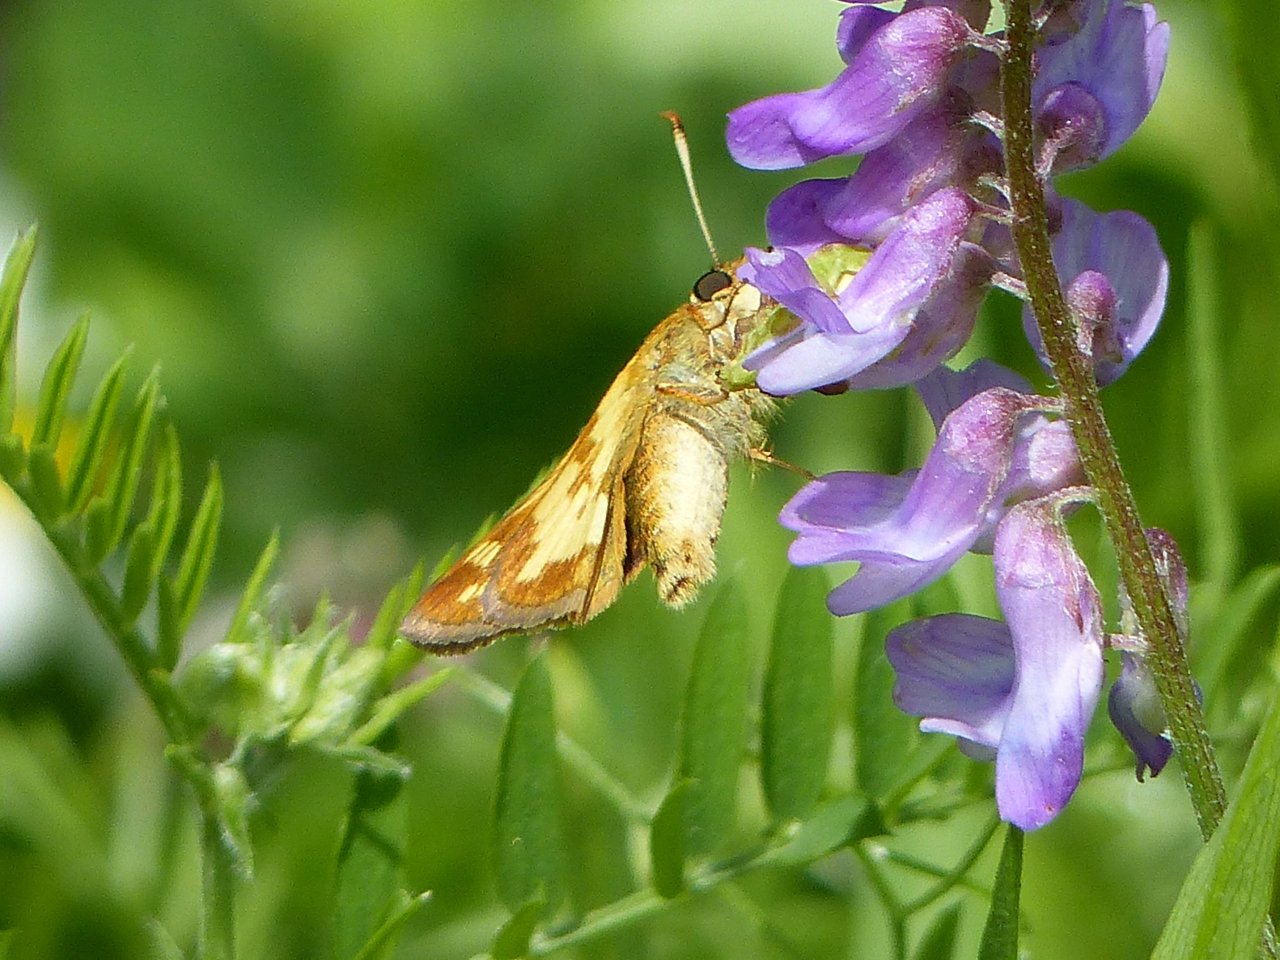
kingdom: Animalia
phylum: Arthropoda
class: Insecta
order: Lepidoptera
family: Hesperiidae
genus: Polites
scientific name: Polites coras
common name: Peck's Skipper
